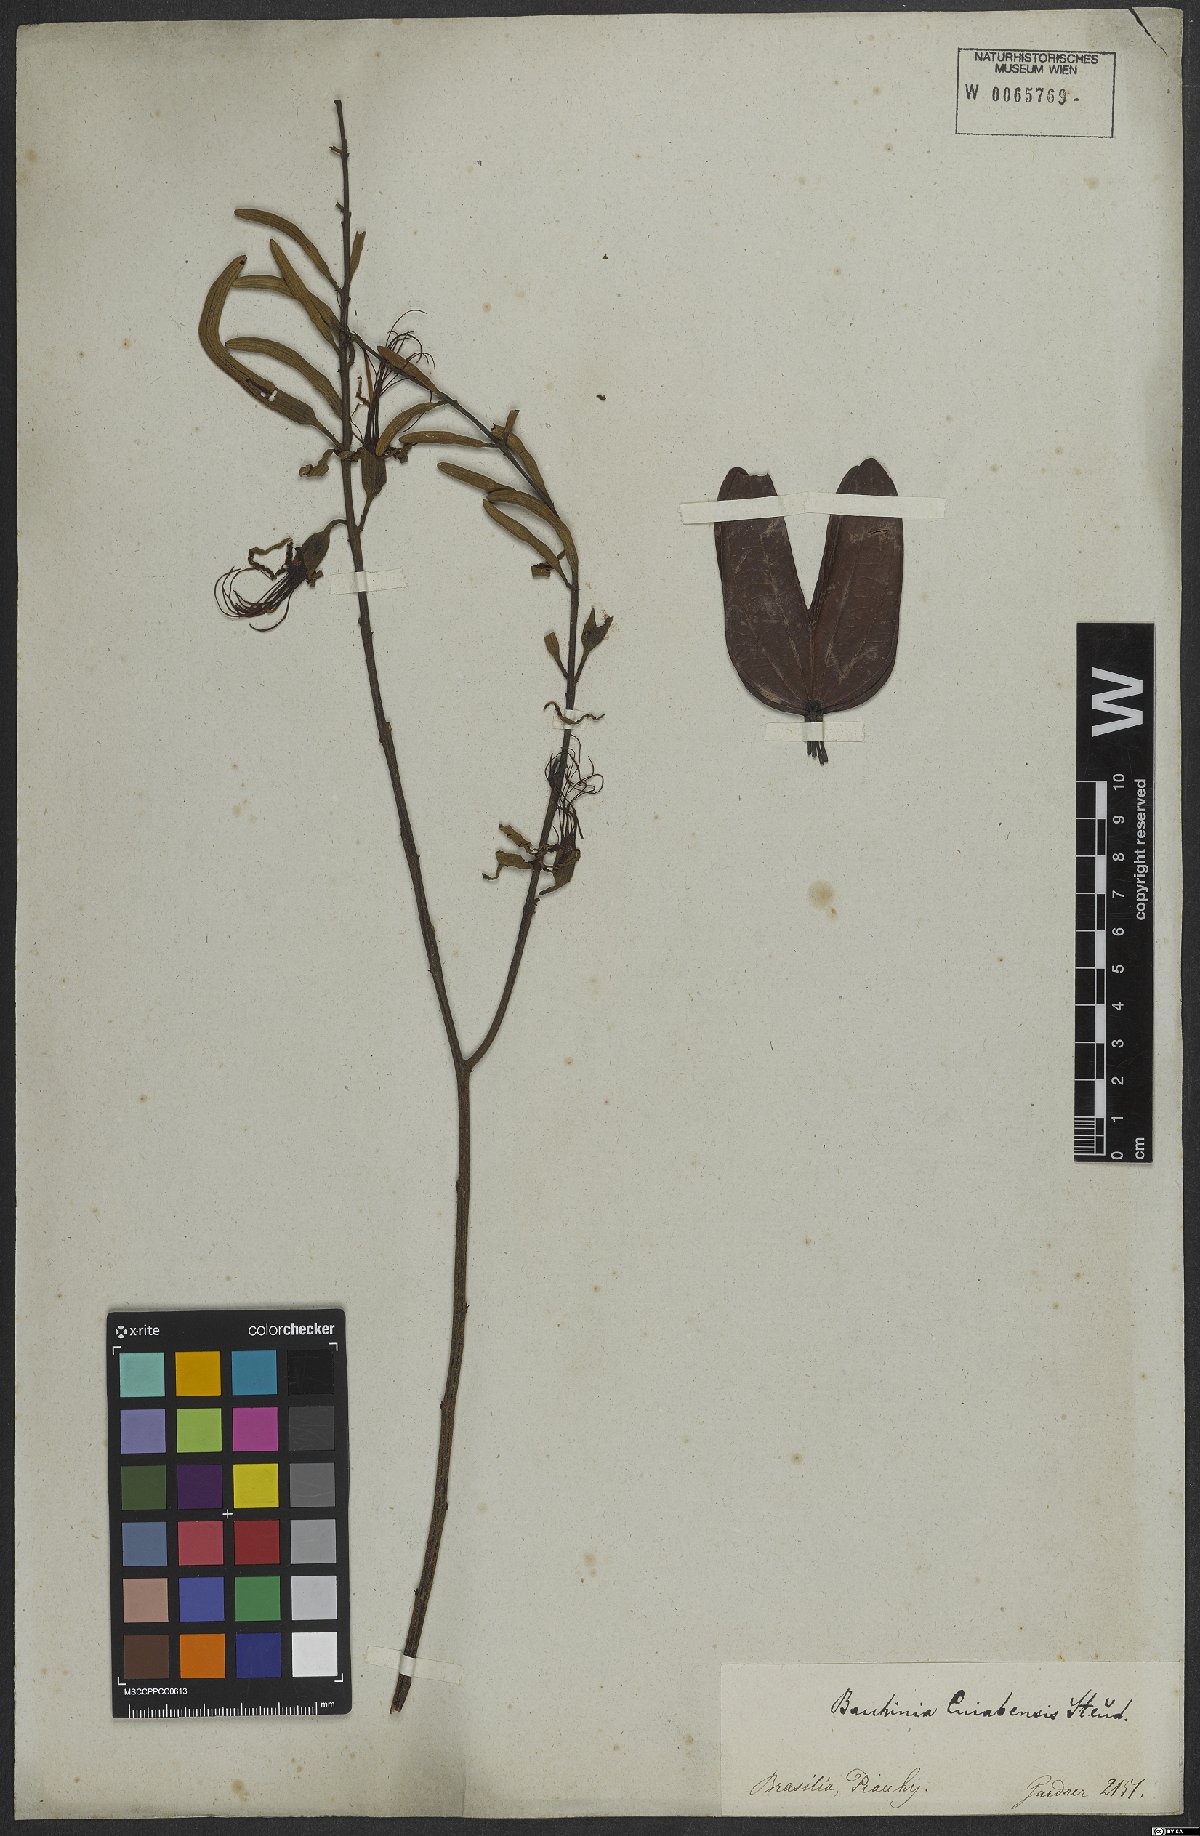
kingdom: Plantae
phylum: Tracheophyta
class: Magnoliopsida
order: Fabales
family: Fabaceae
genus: Bauhinia
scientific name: Bauhinia ungulata
